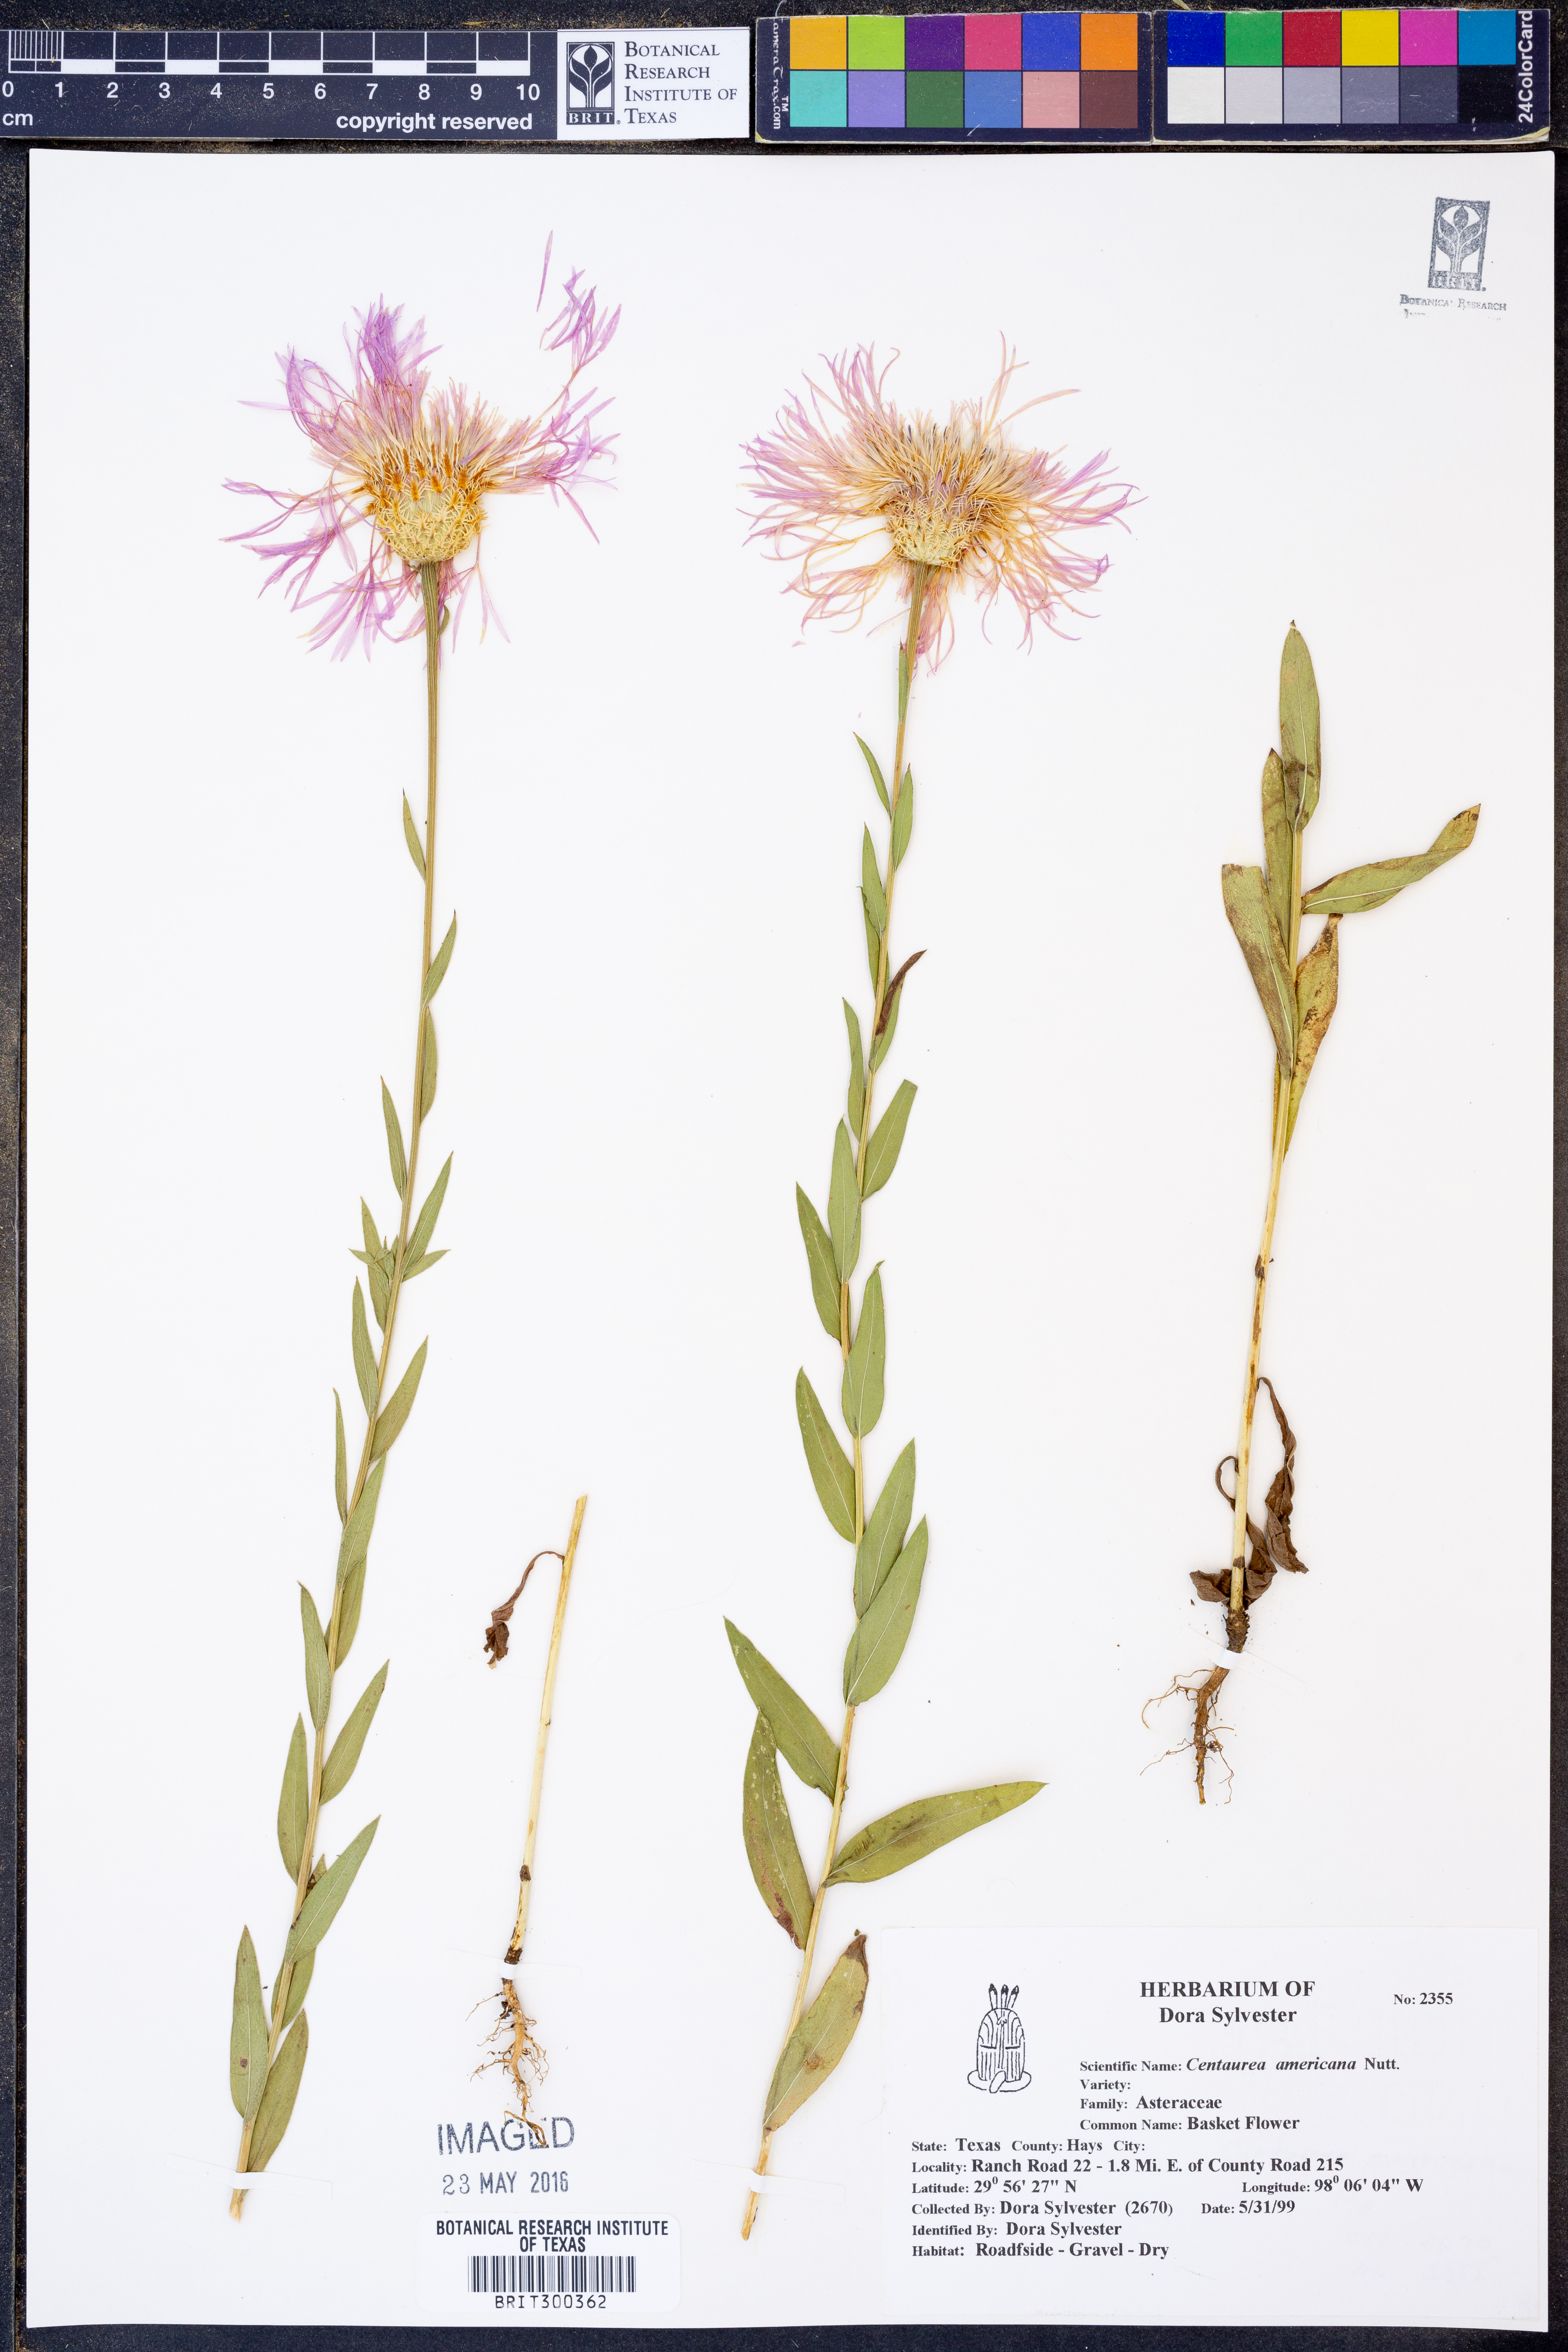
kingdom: Plantae
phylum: Tracheophyta
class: Magnoliopsida
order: Asterales
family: Asteraceae
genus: Plectocephalus
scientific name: Plectocephalus americanus
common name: American basket-flower
